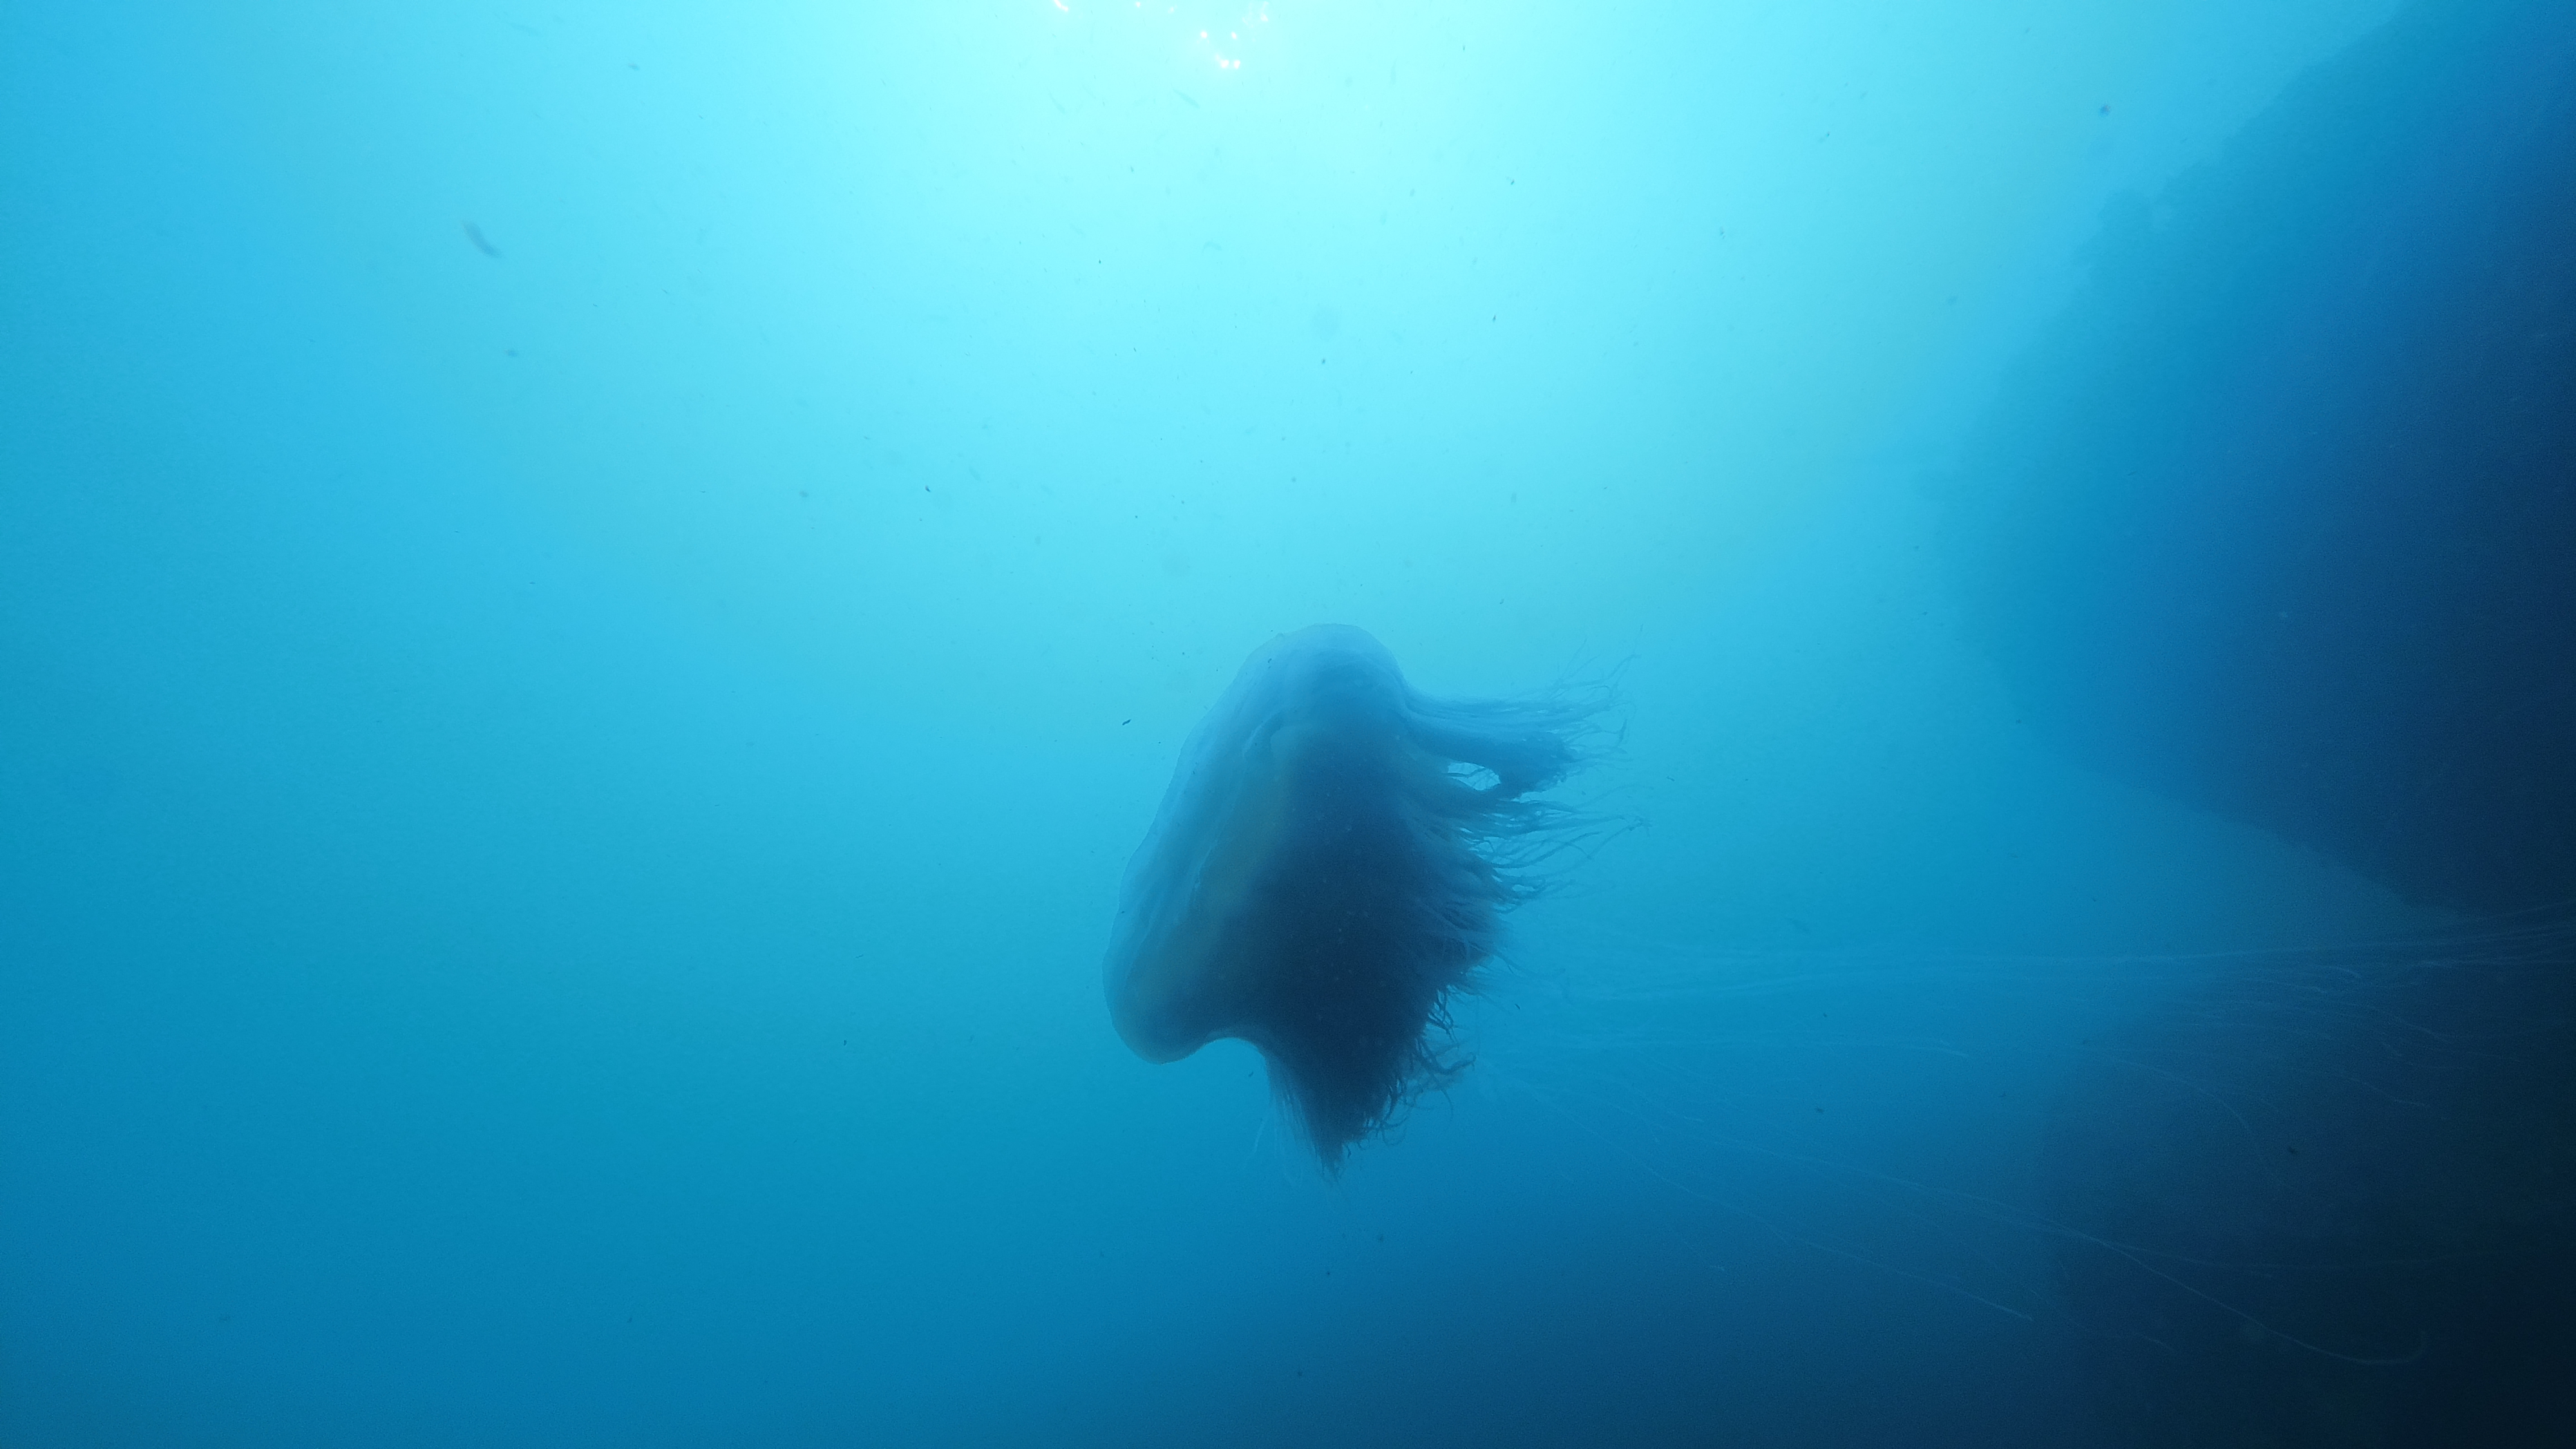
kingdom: Animalia
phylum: Cnidaria
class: Scyphozoa
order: Semaeostomeae
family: Cyaneidae
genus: Cyanea
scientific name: Cyanea nozakii
